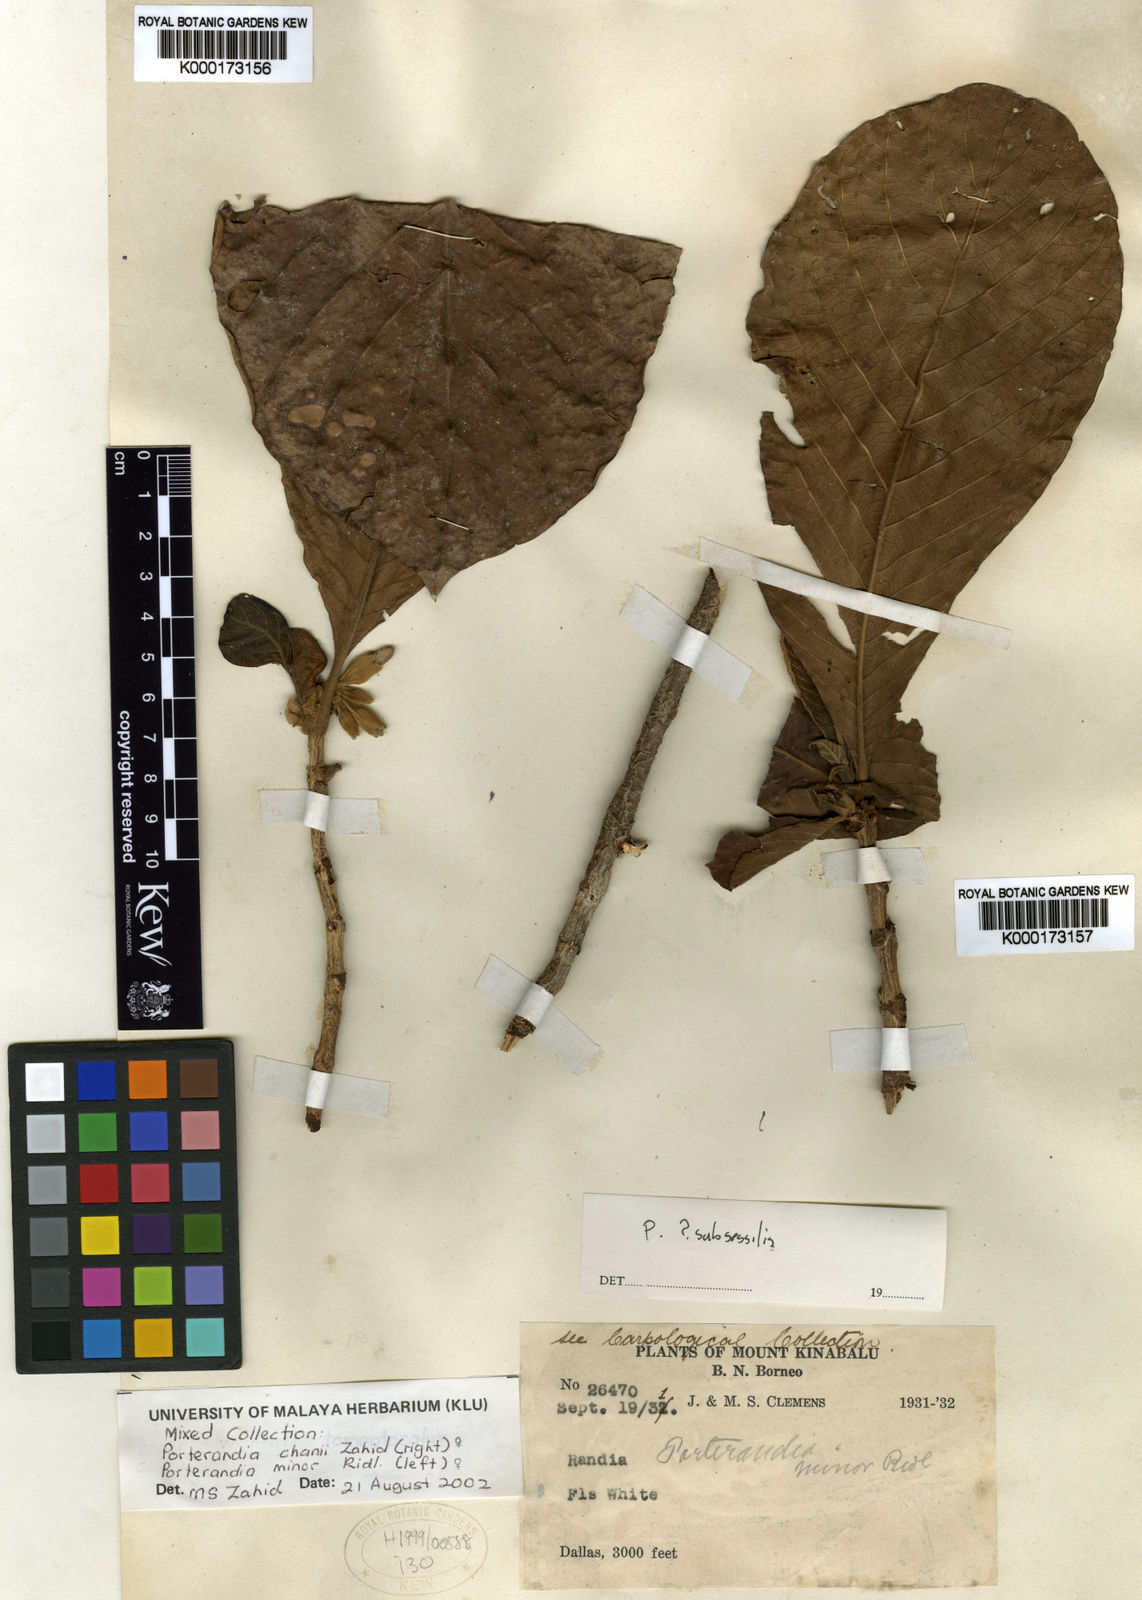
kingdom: Plantae
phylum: Tracheophyta
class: Magnoliopsida
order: Gentianales
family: Rubiaceae
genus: Porterandia
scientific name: Porterandia minor
